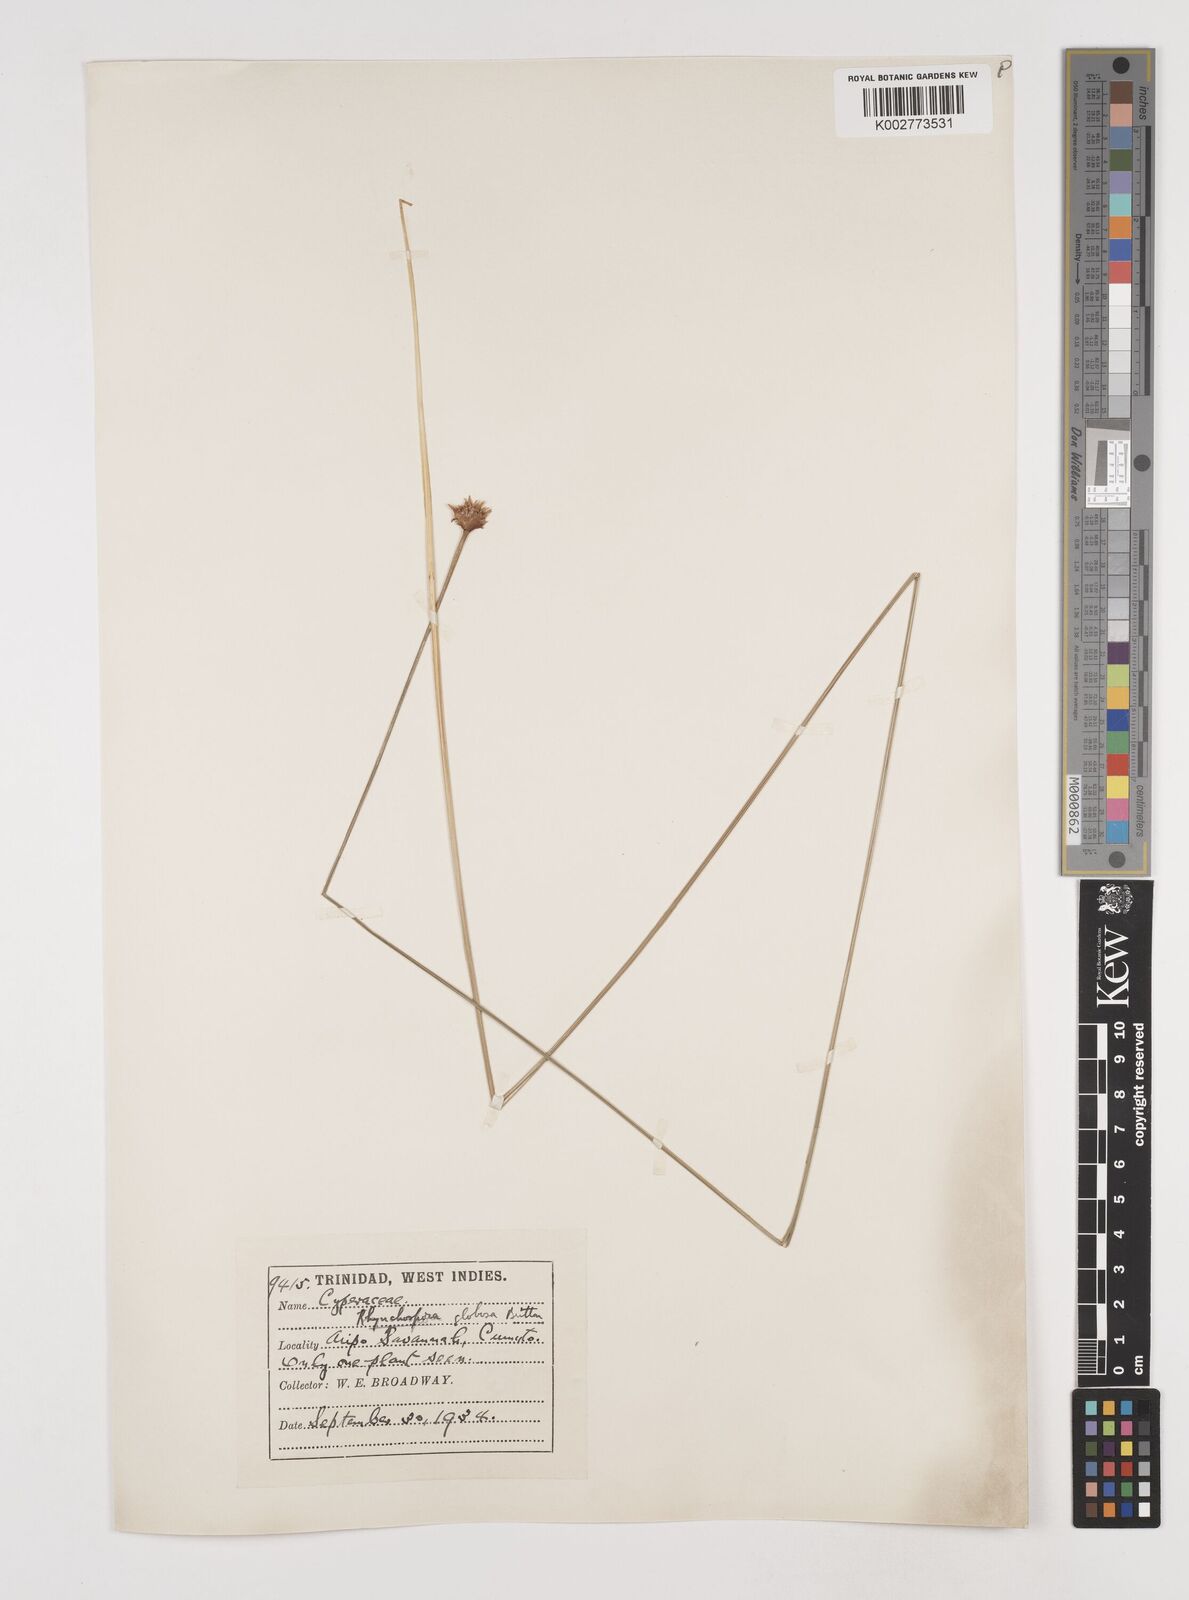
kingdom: Plantae
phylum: Tracheophyta
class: Liliopsida
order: Poales
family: Cyperaceae
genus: Rhynchospora
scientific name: Rhynchospora globosa
